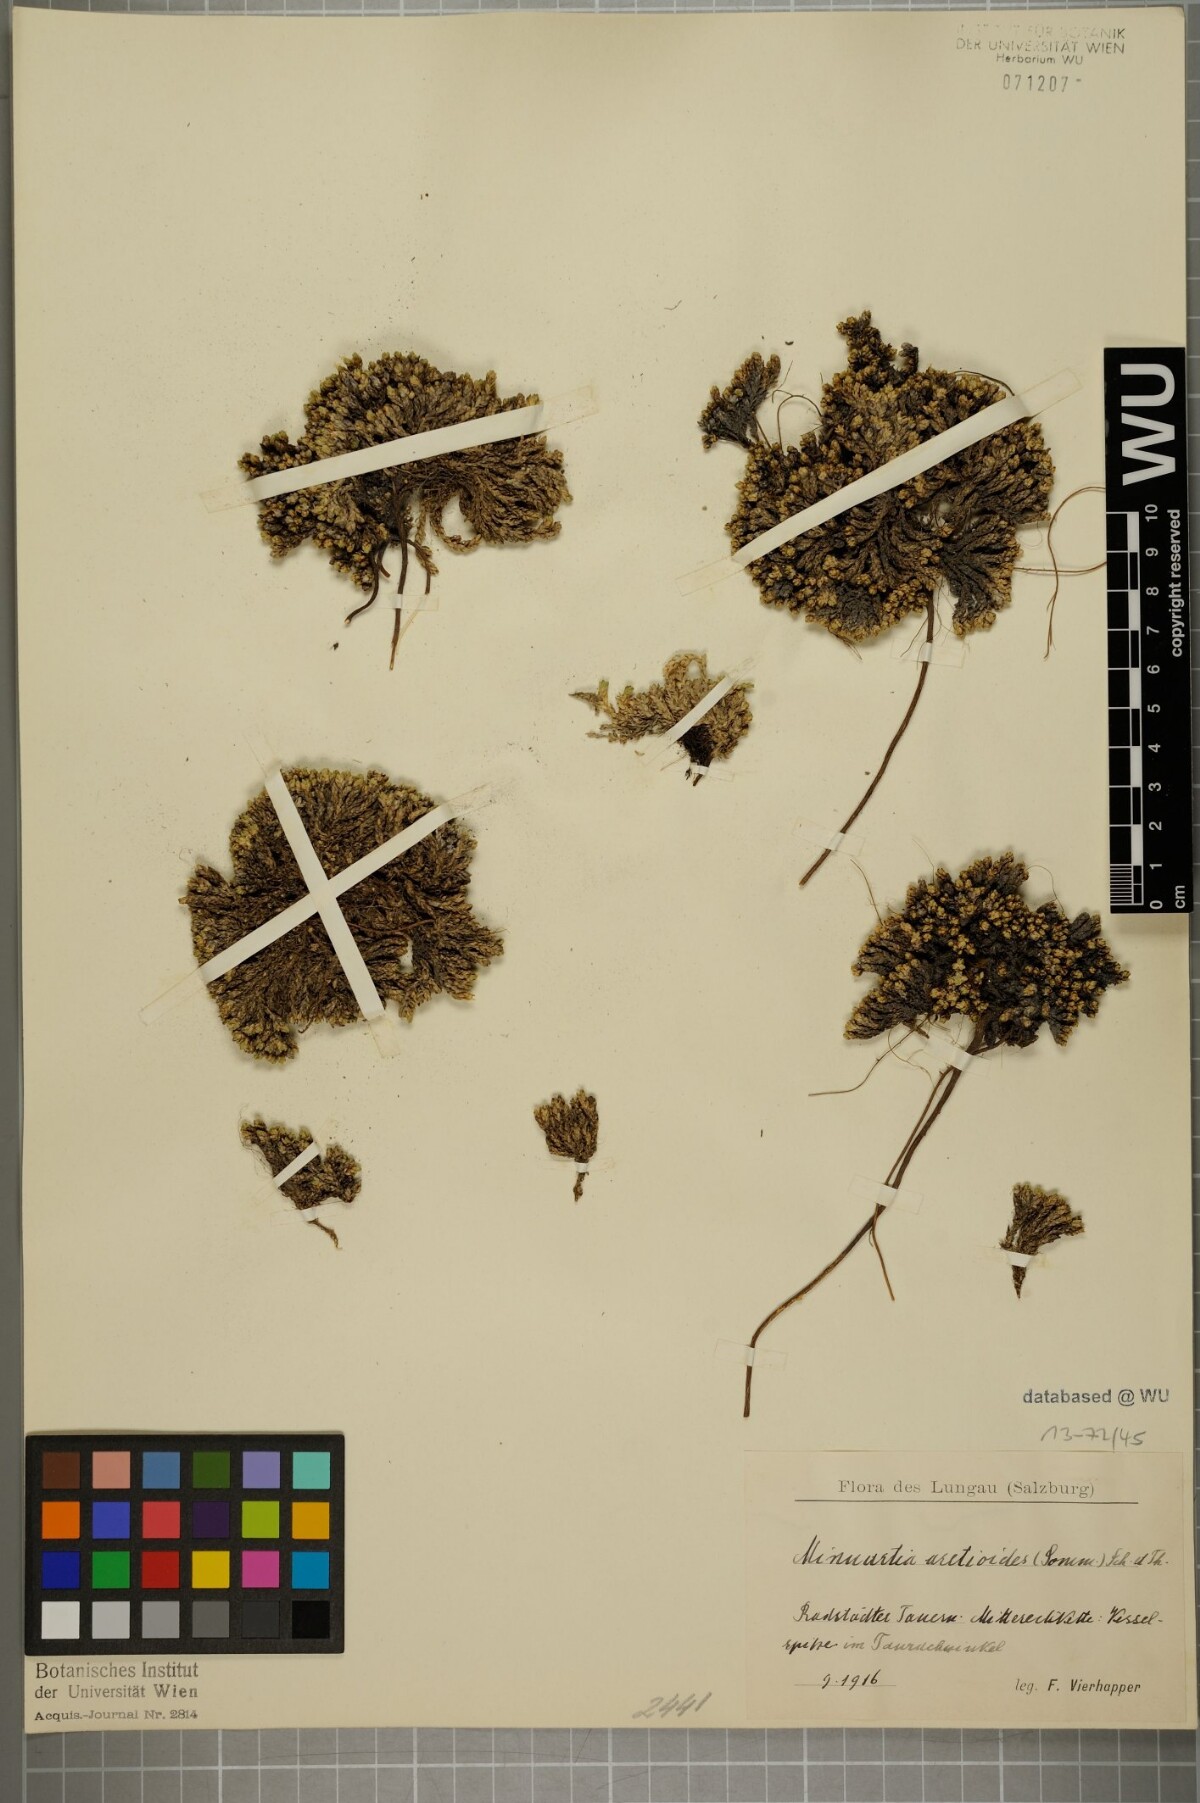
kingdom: Plantae
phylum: Tracheophyta
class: Magnoliopsida
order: Caryophyllales
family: Caryophyllaceae
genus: Facchinia
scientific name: Facchinia cherlerioides
